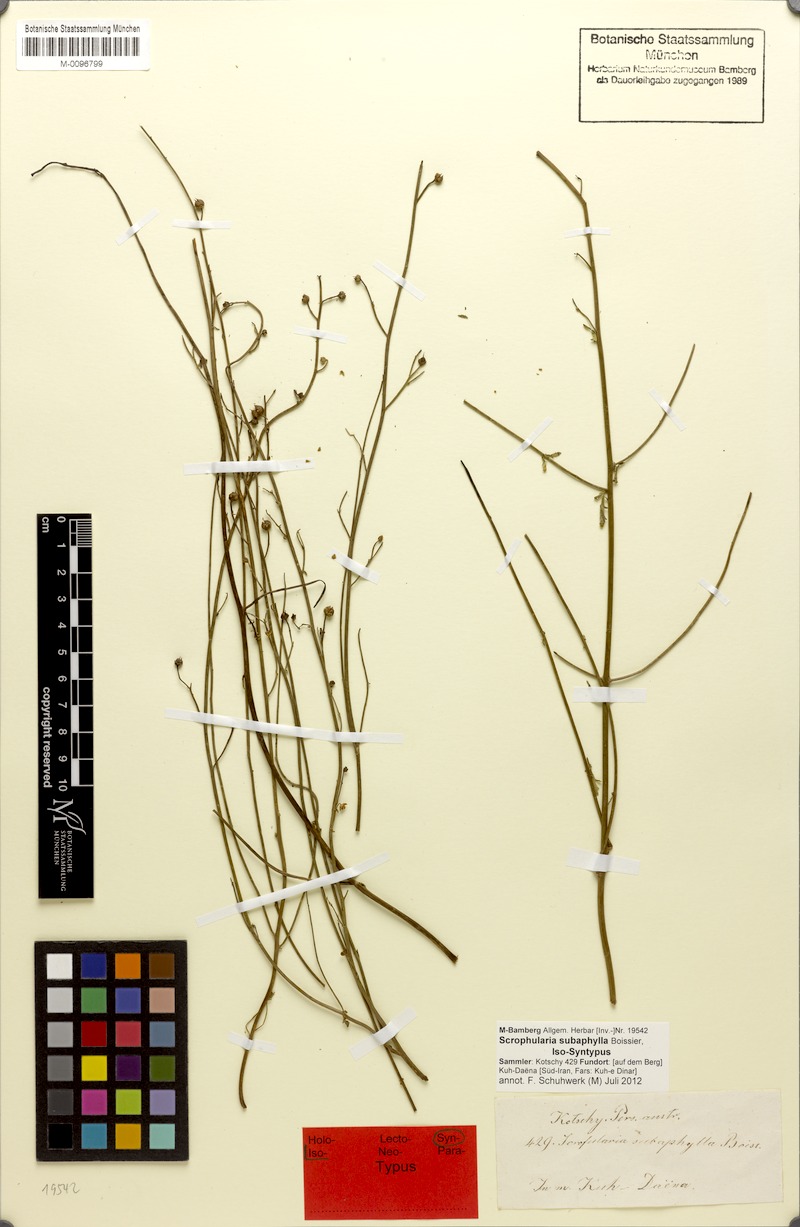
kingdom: Plantae
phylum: Tracheophyta
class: Magnoliopsida
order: Lamiales
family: Scrophulariaceae
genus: Scrophularia
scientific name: Scrophularia subaphylla
